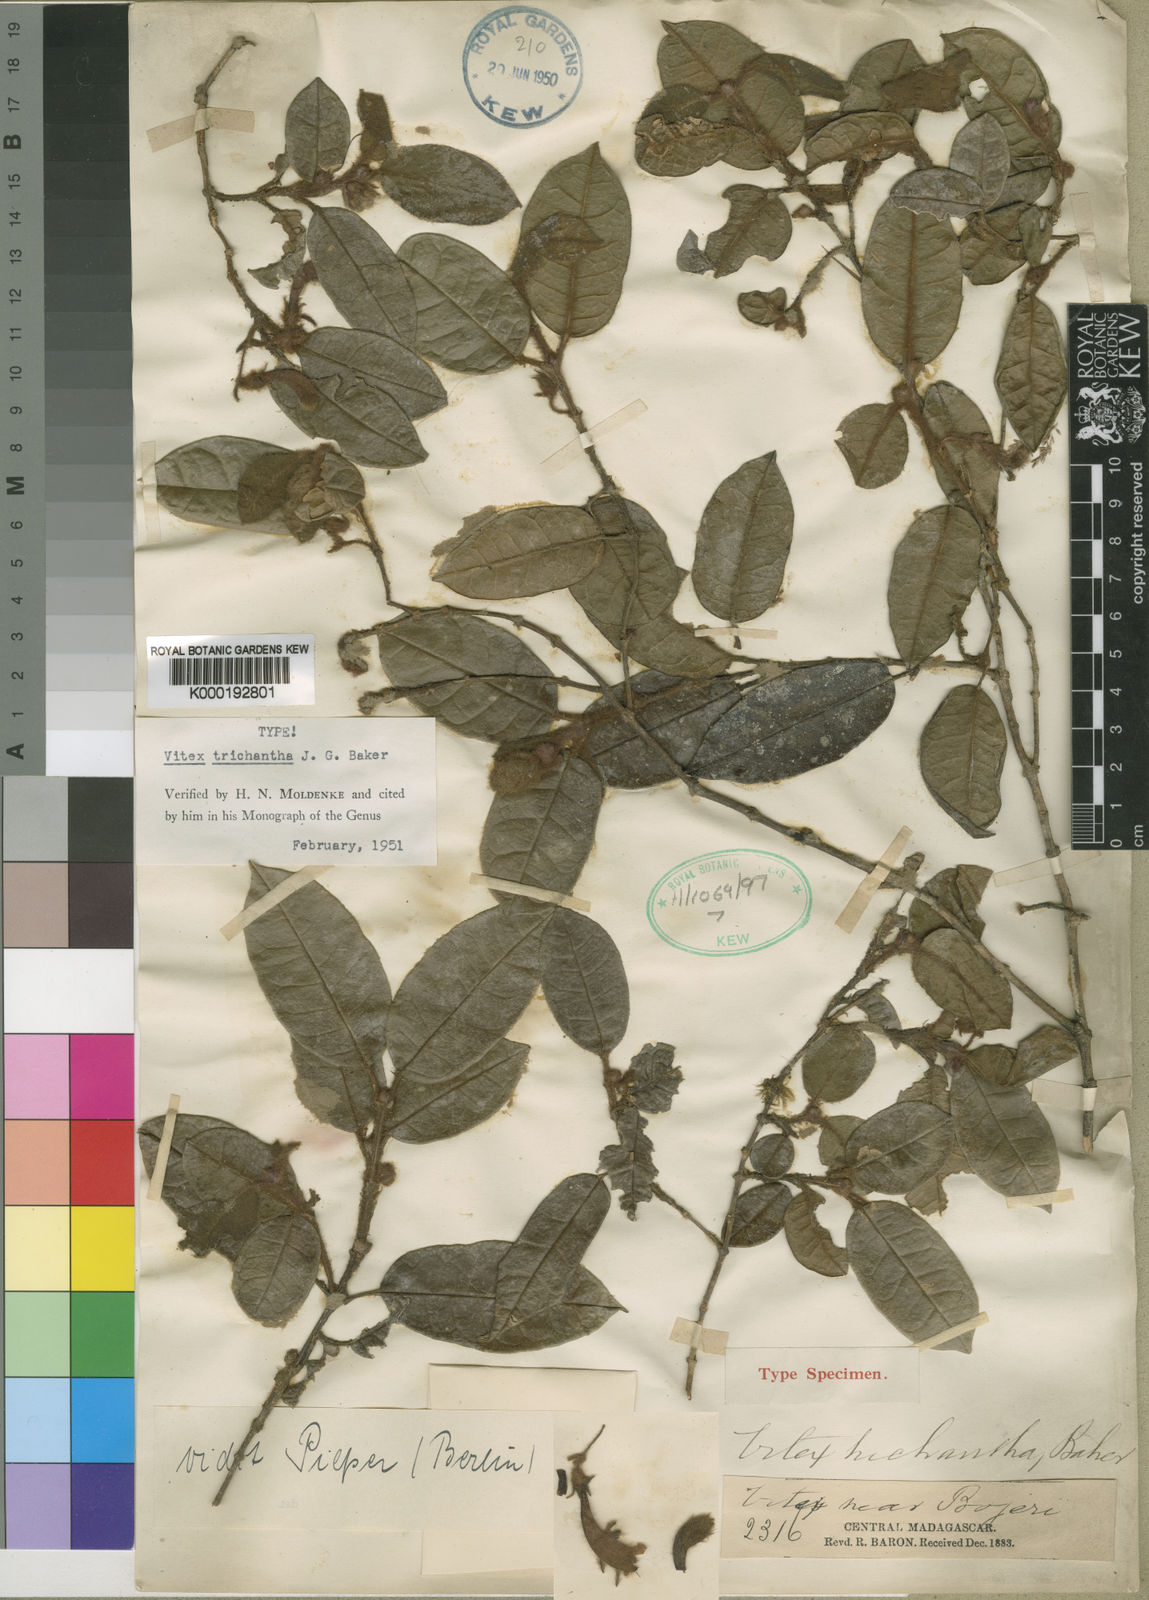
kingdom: Plantae
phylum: Tracheophyta
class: Magnoliopsida
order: Lamiales
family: Lamiaceae
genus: Vitex
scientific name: Vitex trichantha
